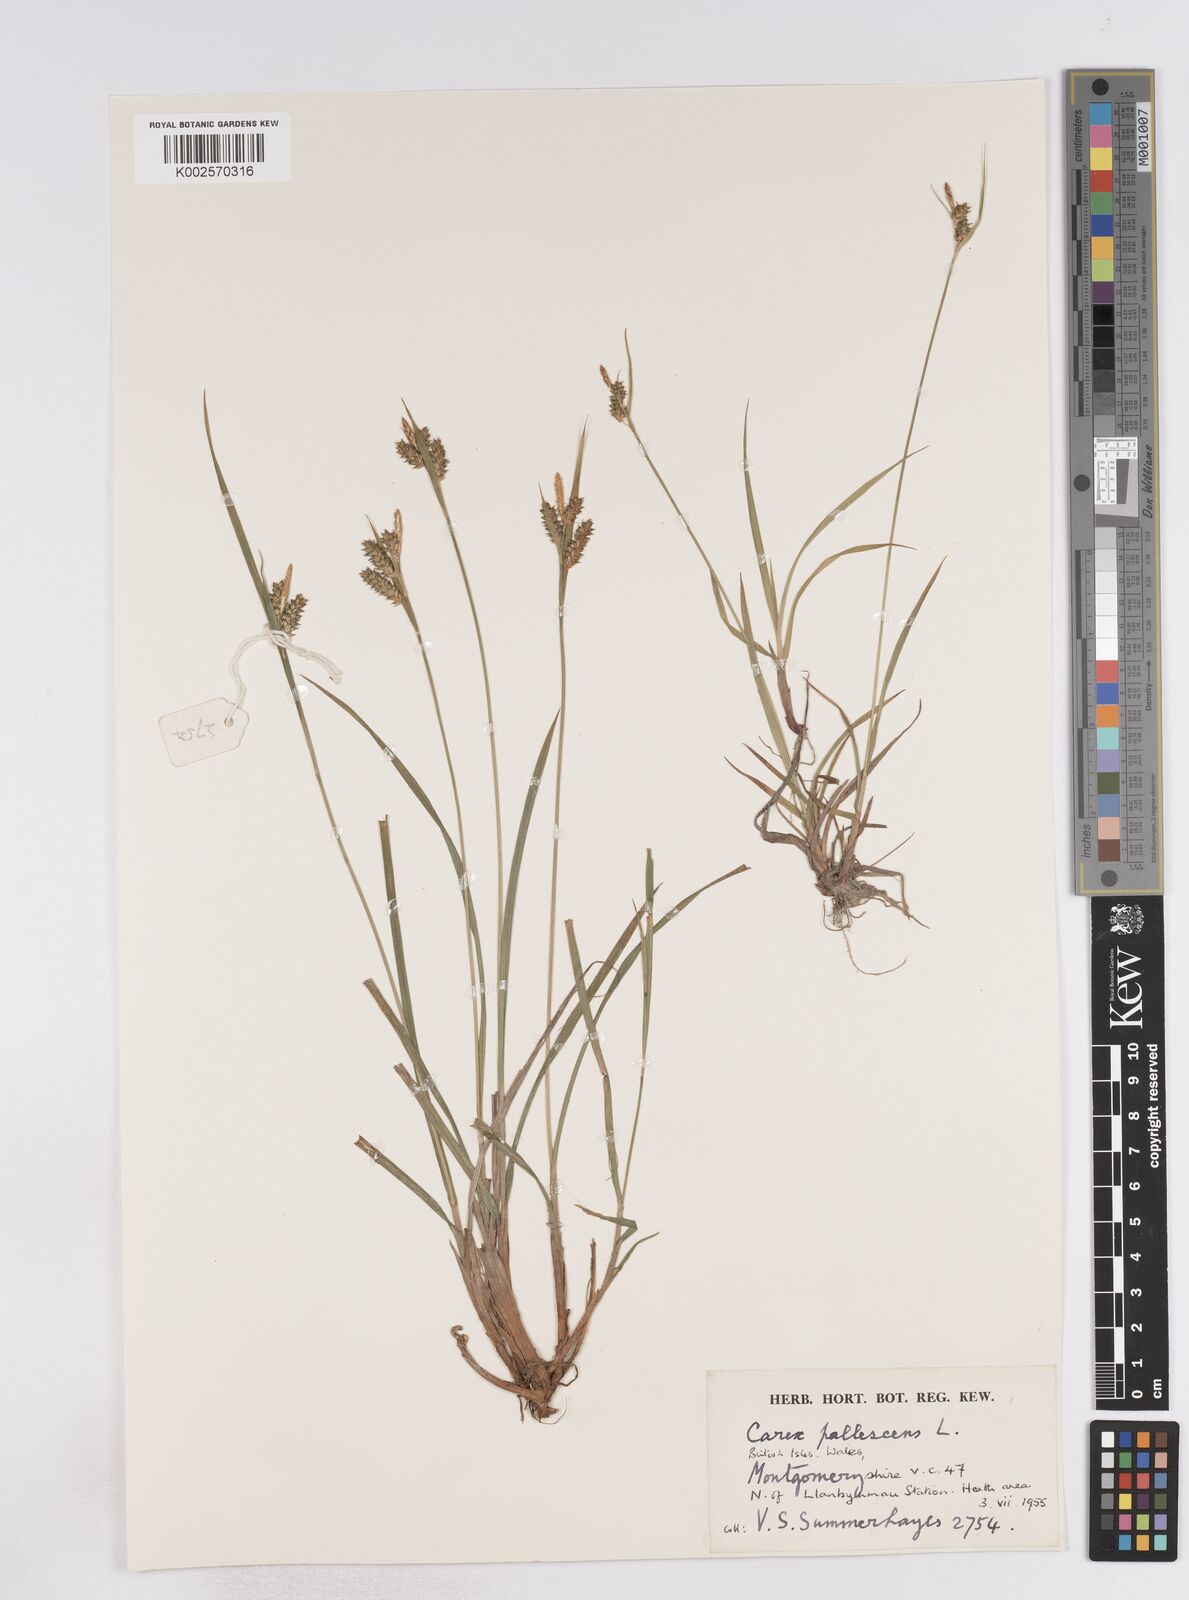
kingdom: Plantae
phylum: Tracheophyta
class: Liliopsida
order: Poales
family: Cyperaceae
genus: Carex
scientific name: Carex pallescens
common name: Pale sedge
